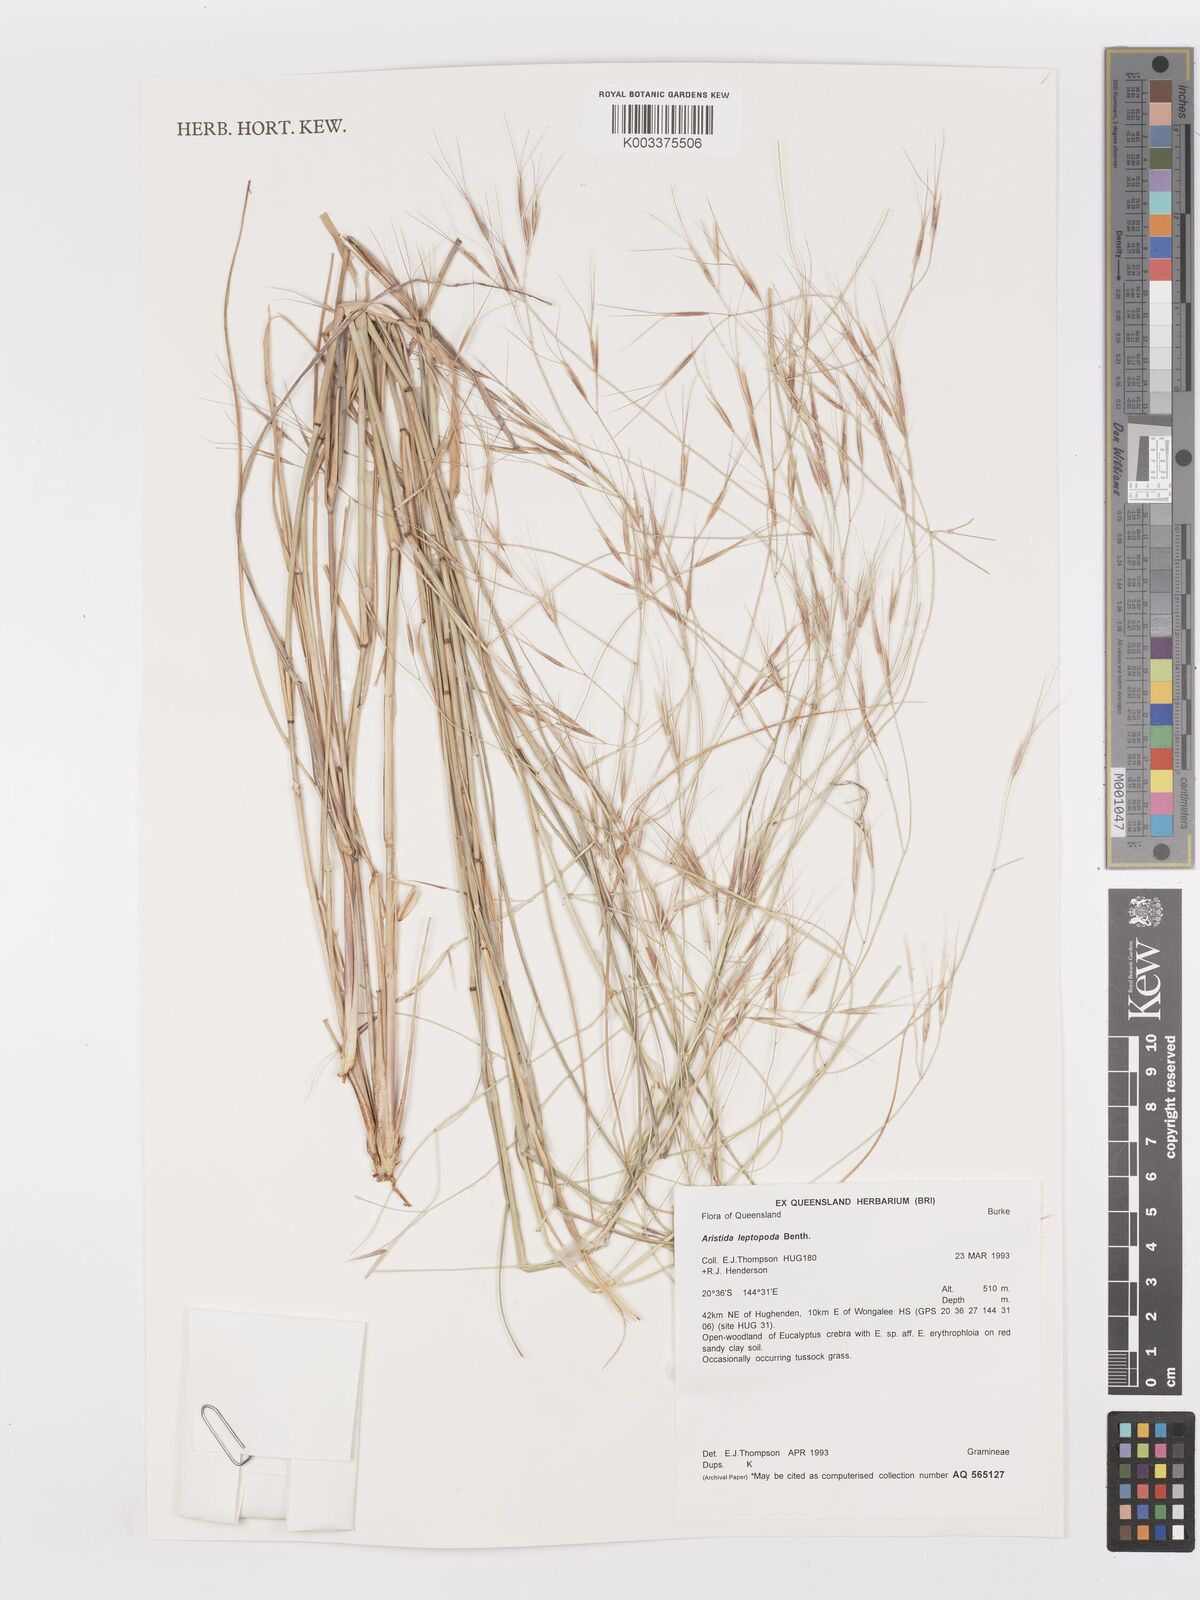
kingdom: Plantae
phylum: Tracheophyta
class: Liliopsida
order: Poales
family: Poaceae
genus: Aristida
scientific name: Aristida leptopoda
